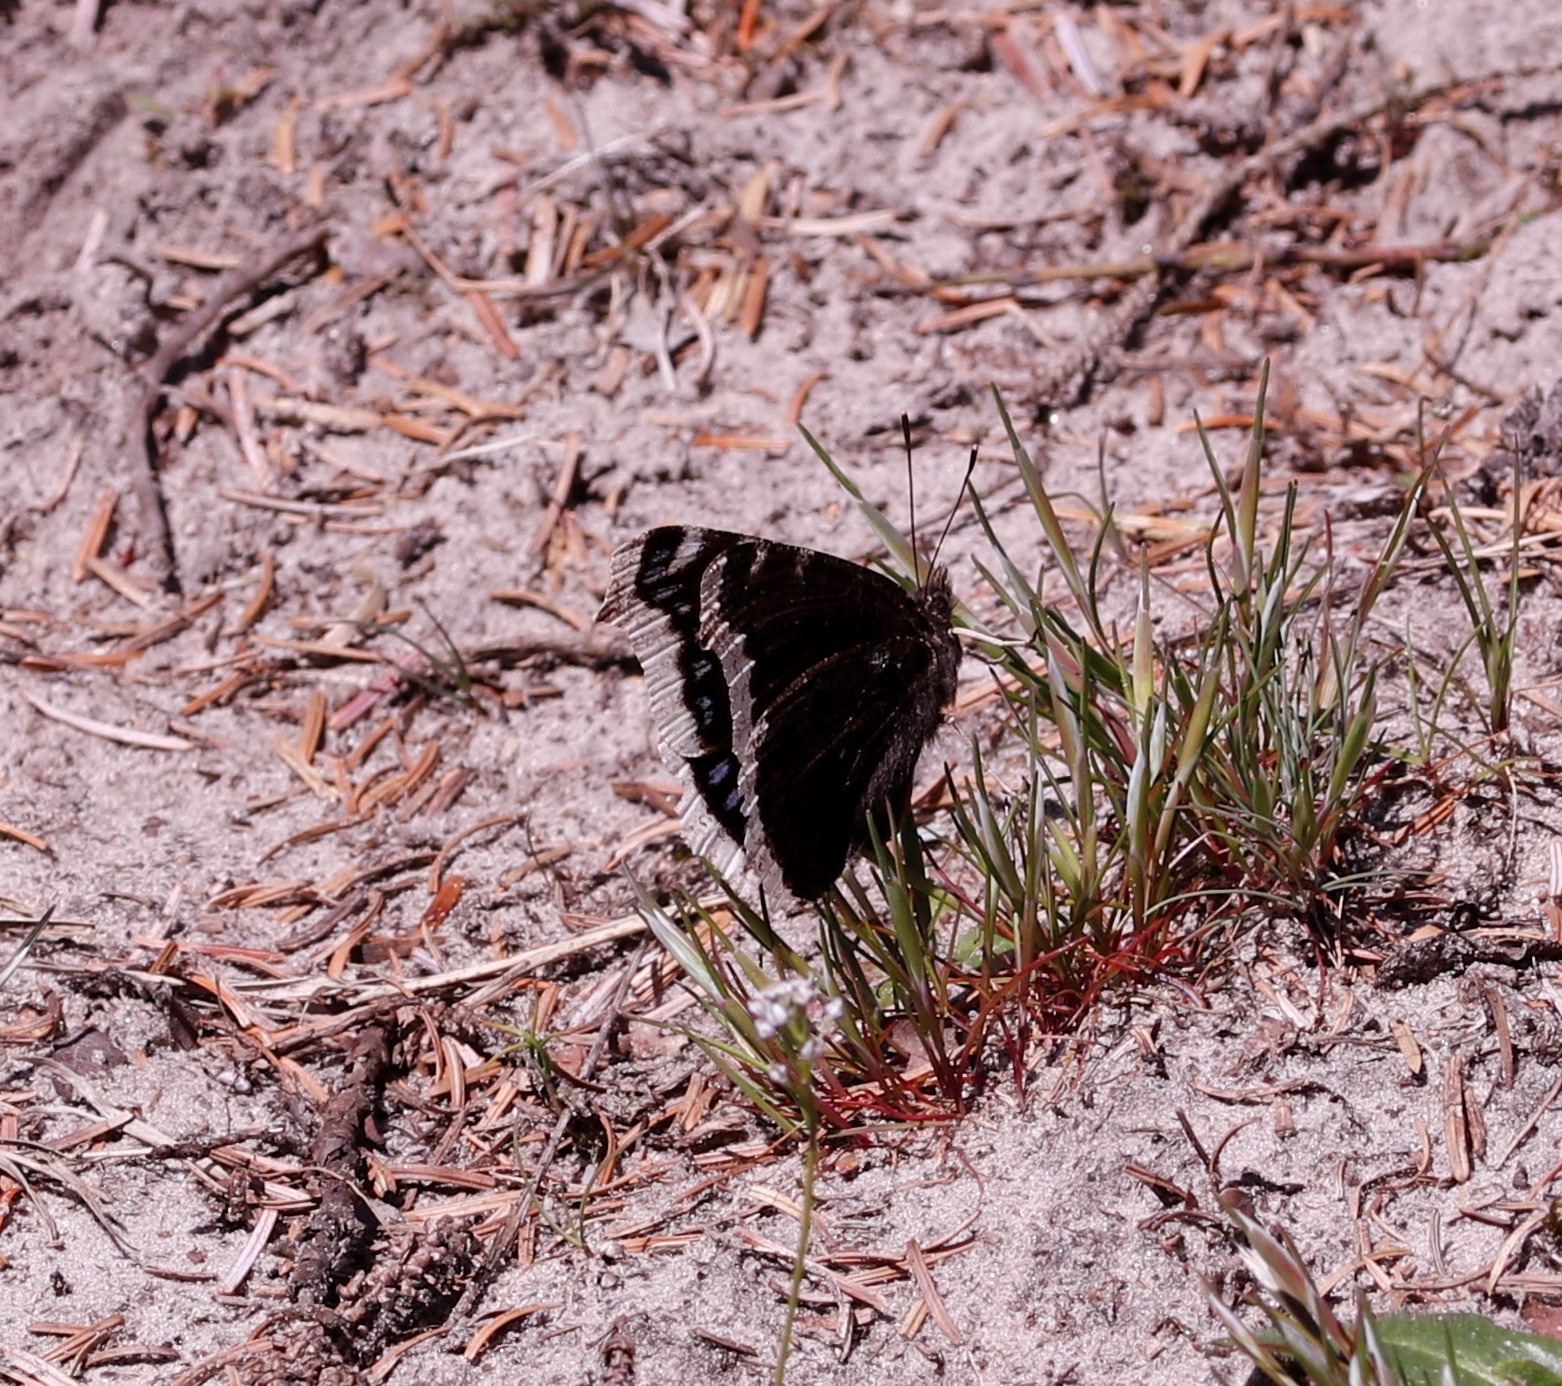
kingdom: Animalia
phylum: Arthropoda
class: Insecta
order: Lepidoptera
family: Nymphalidae
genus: Nymphalis
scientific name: Nymphalis antiopa
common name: Sørgekåbe
